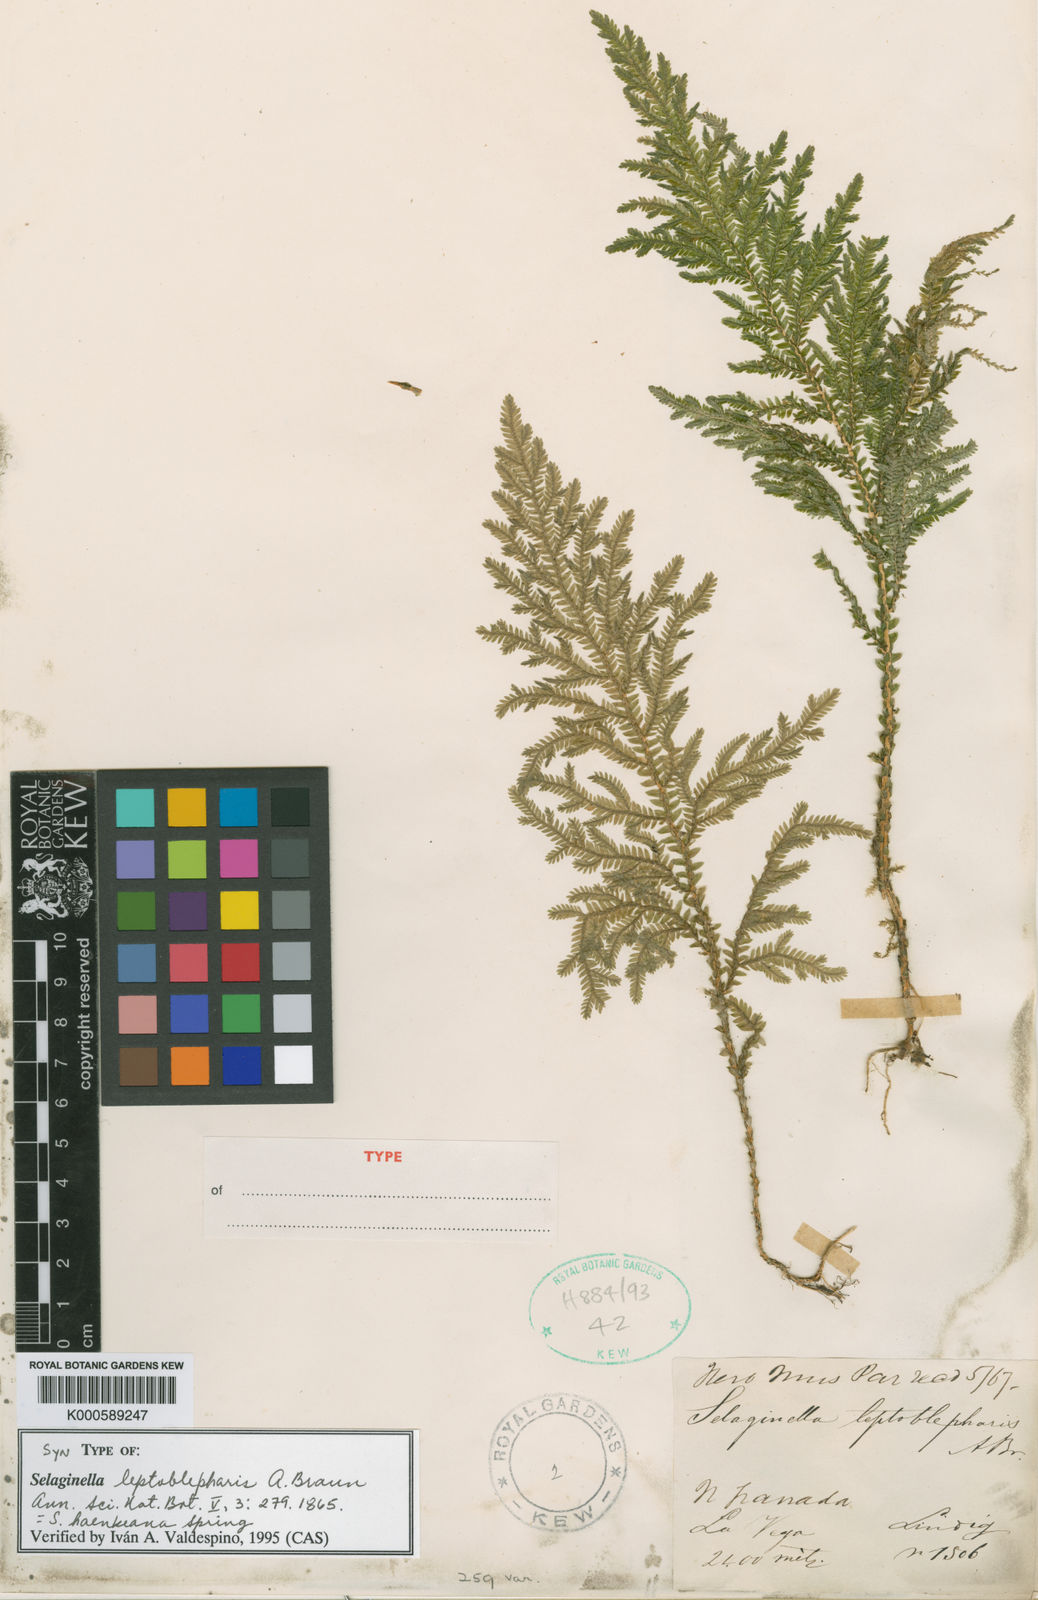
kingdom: Plantae
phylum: Tracheophyta
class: Lycopodiopsida
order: Selaginellales
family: Selaginellaceae
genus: Selaginella
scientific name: Selaginella haenkeana
